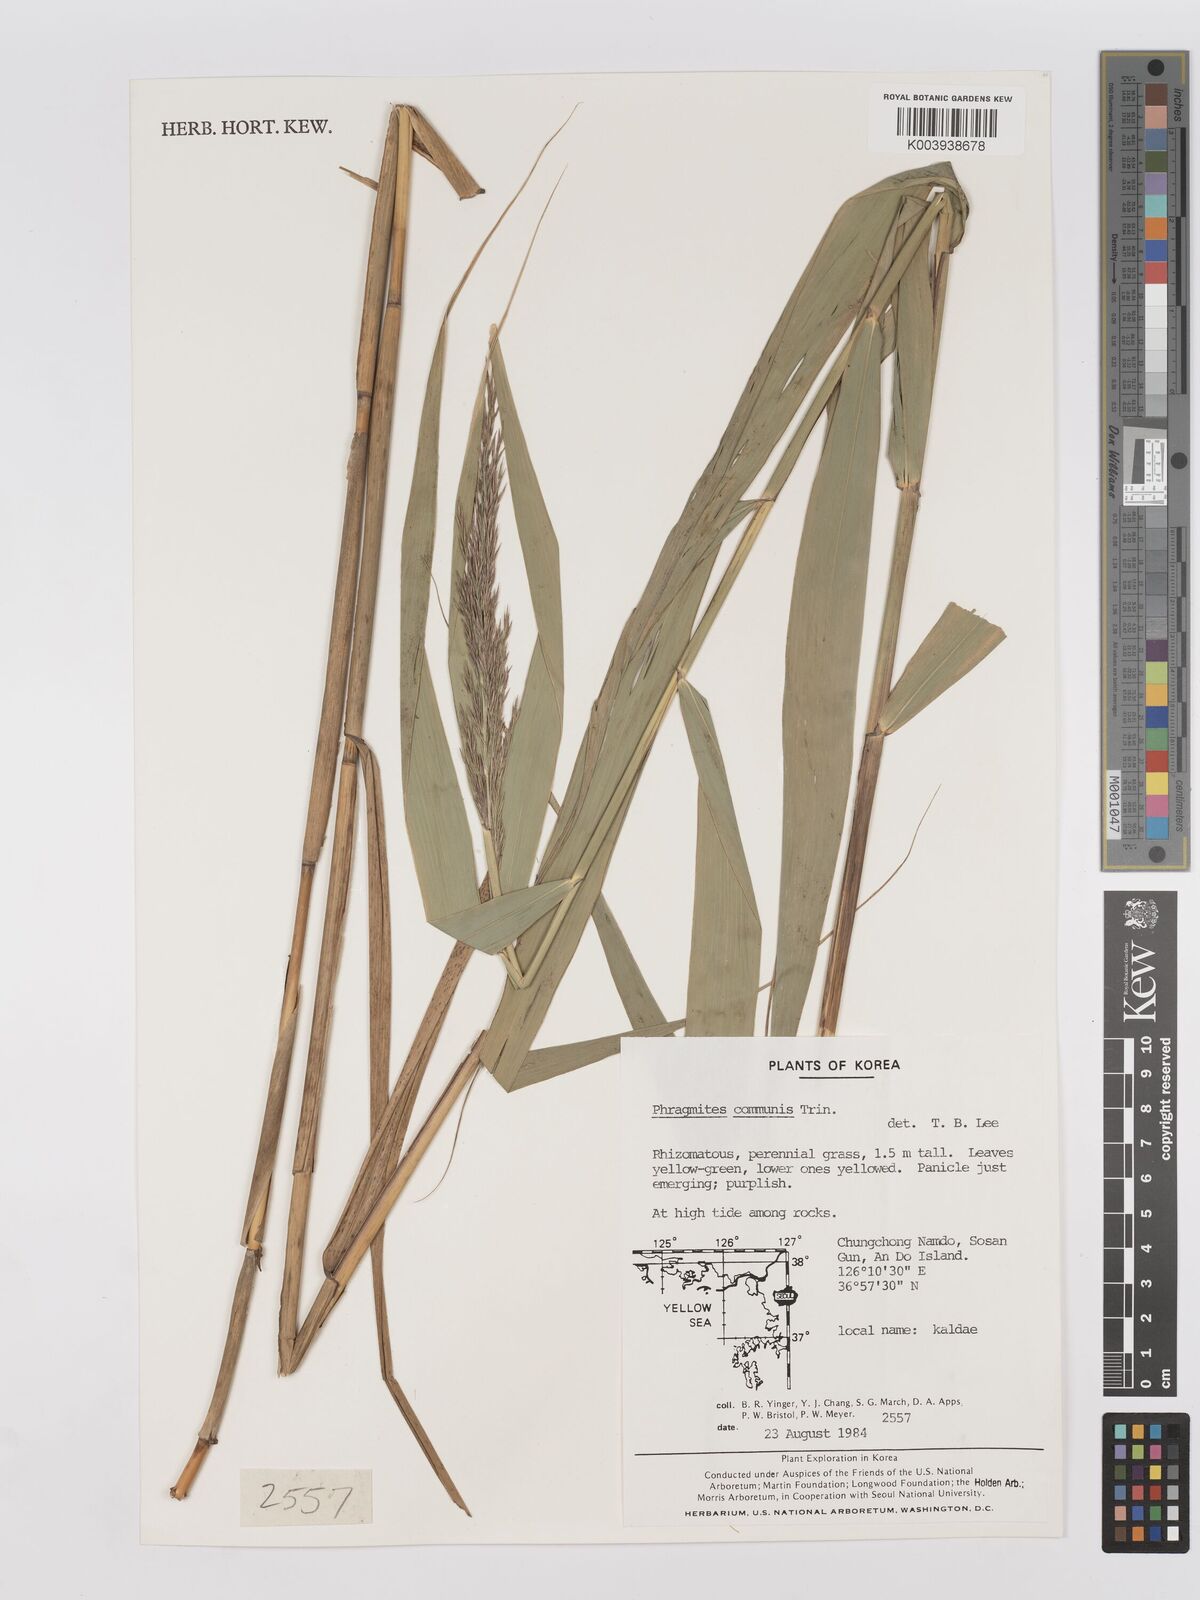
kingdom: Plantae
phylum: Tracheophyta
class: Liliopsida
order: Poales
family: Poaceae
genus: Phragmites
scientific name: Phragmites australis
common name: Common reed
